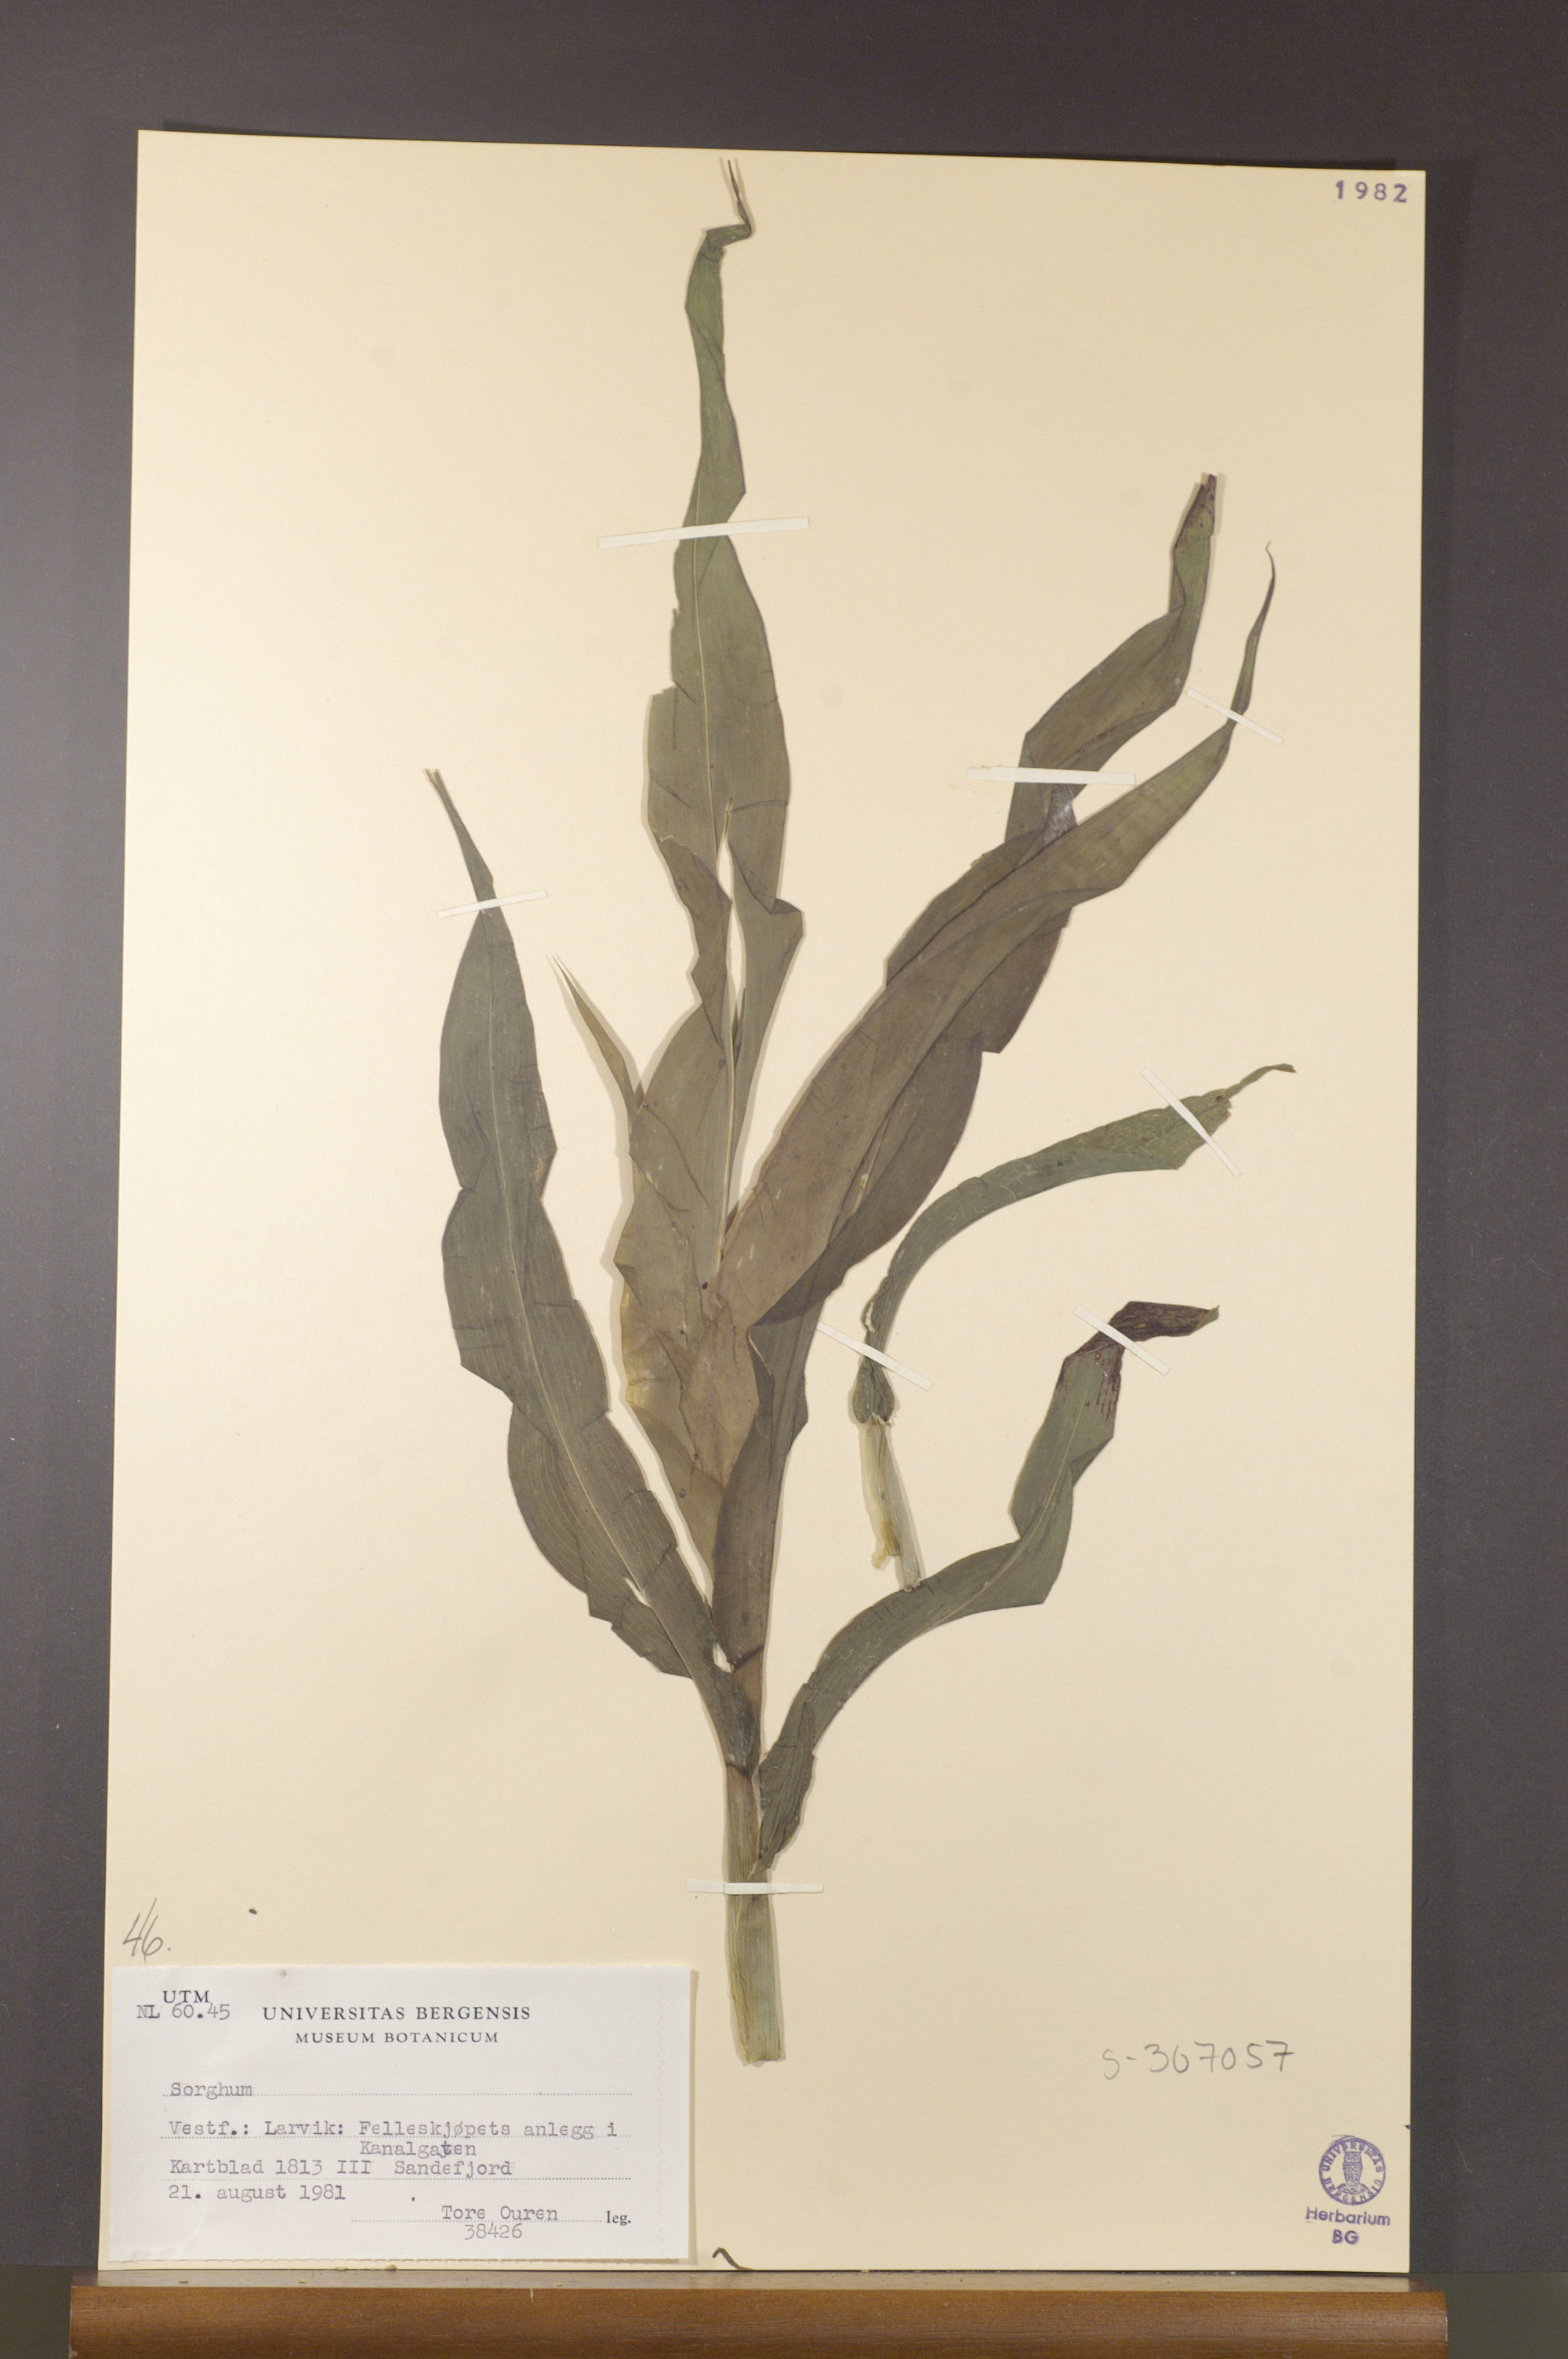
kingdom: Plantae
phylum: Tracheophyta
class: Liliopsida
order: Poales
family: Poaceae
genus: Sorghum
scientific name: Sorghum
